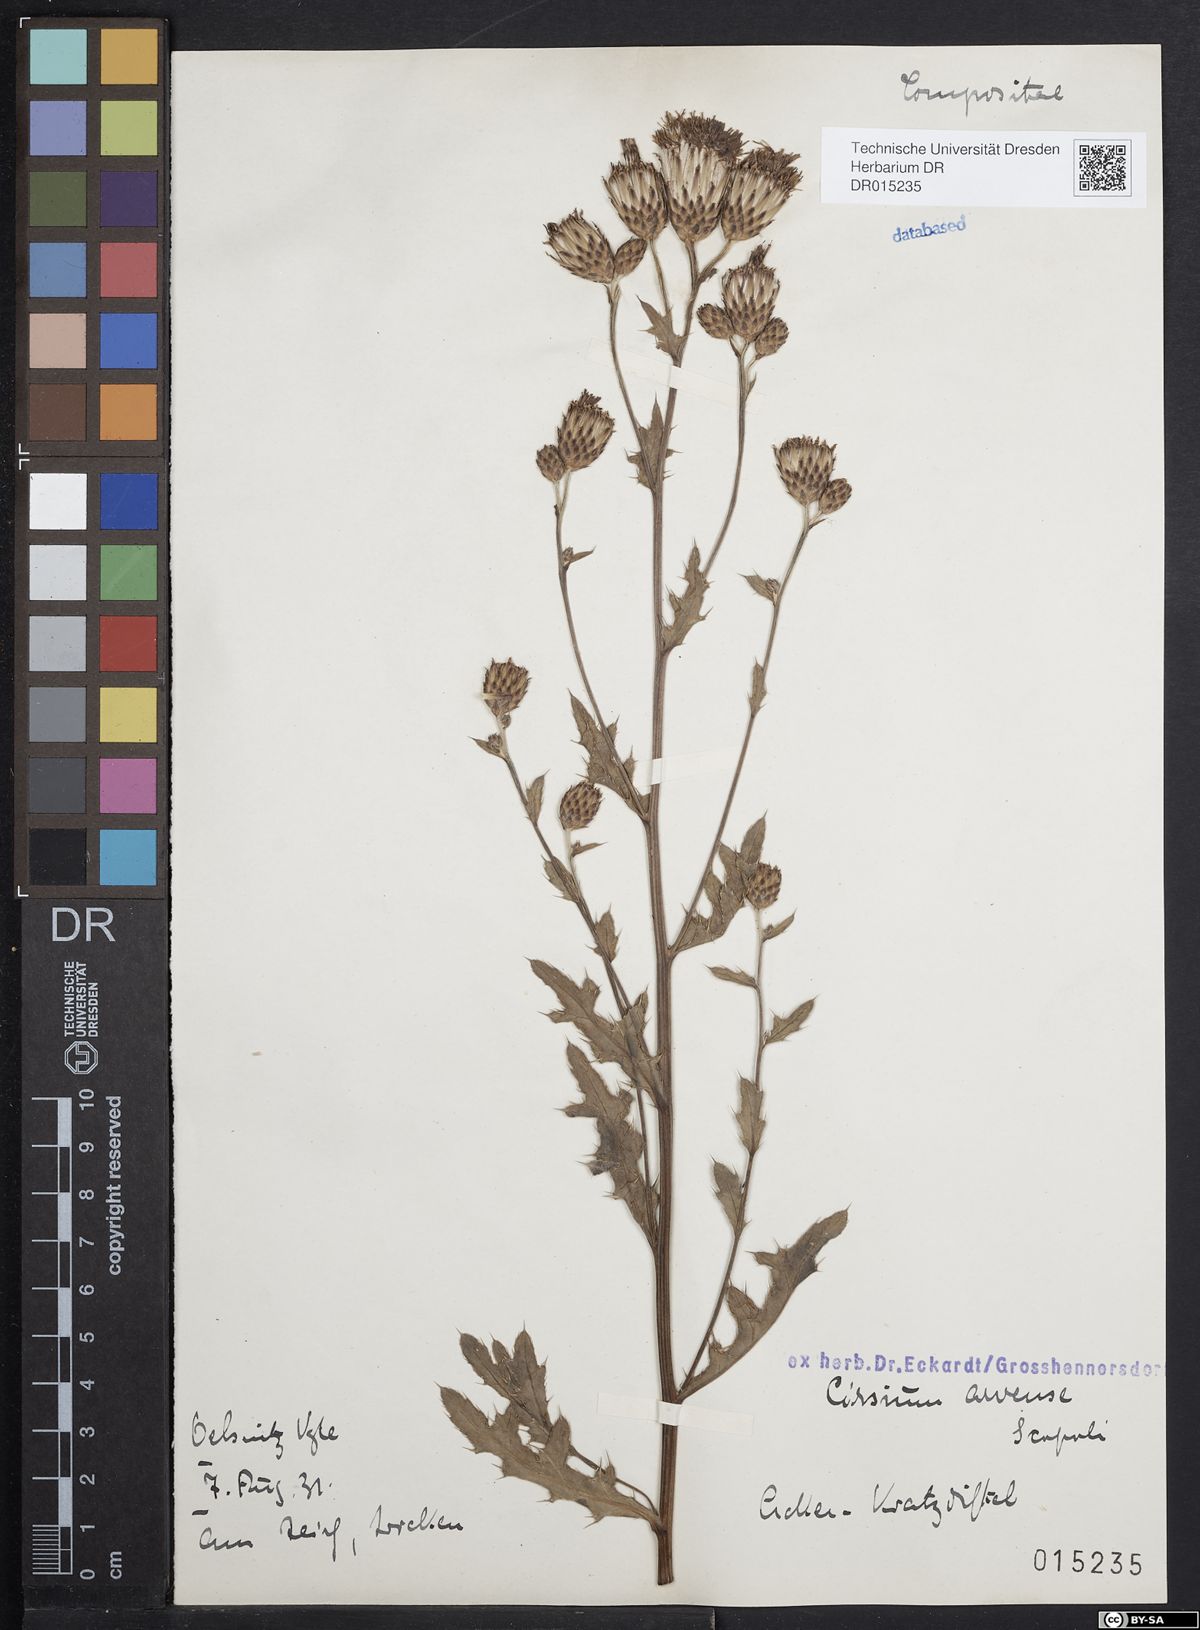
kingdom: Plantae
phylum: Tracheophyta
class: Magnoliopsida
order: Asterales
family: Asteraceae
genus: Cirsium
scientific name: Cirsium arvense
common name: Creeping thistle
